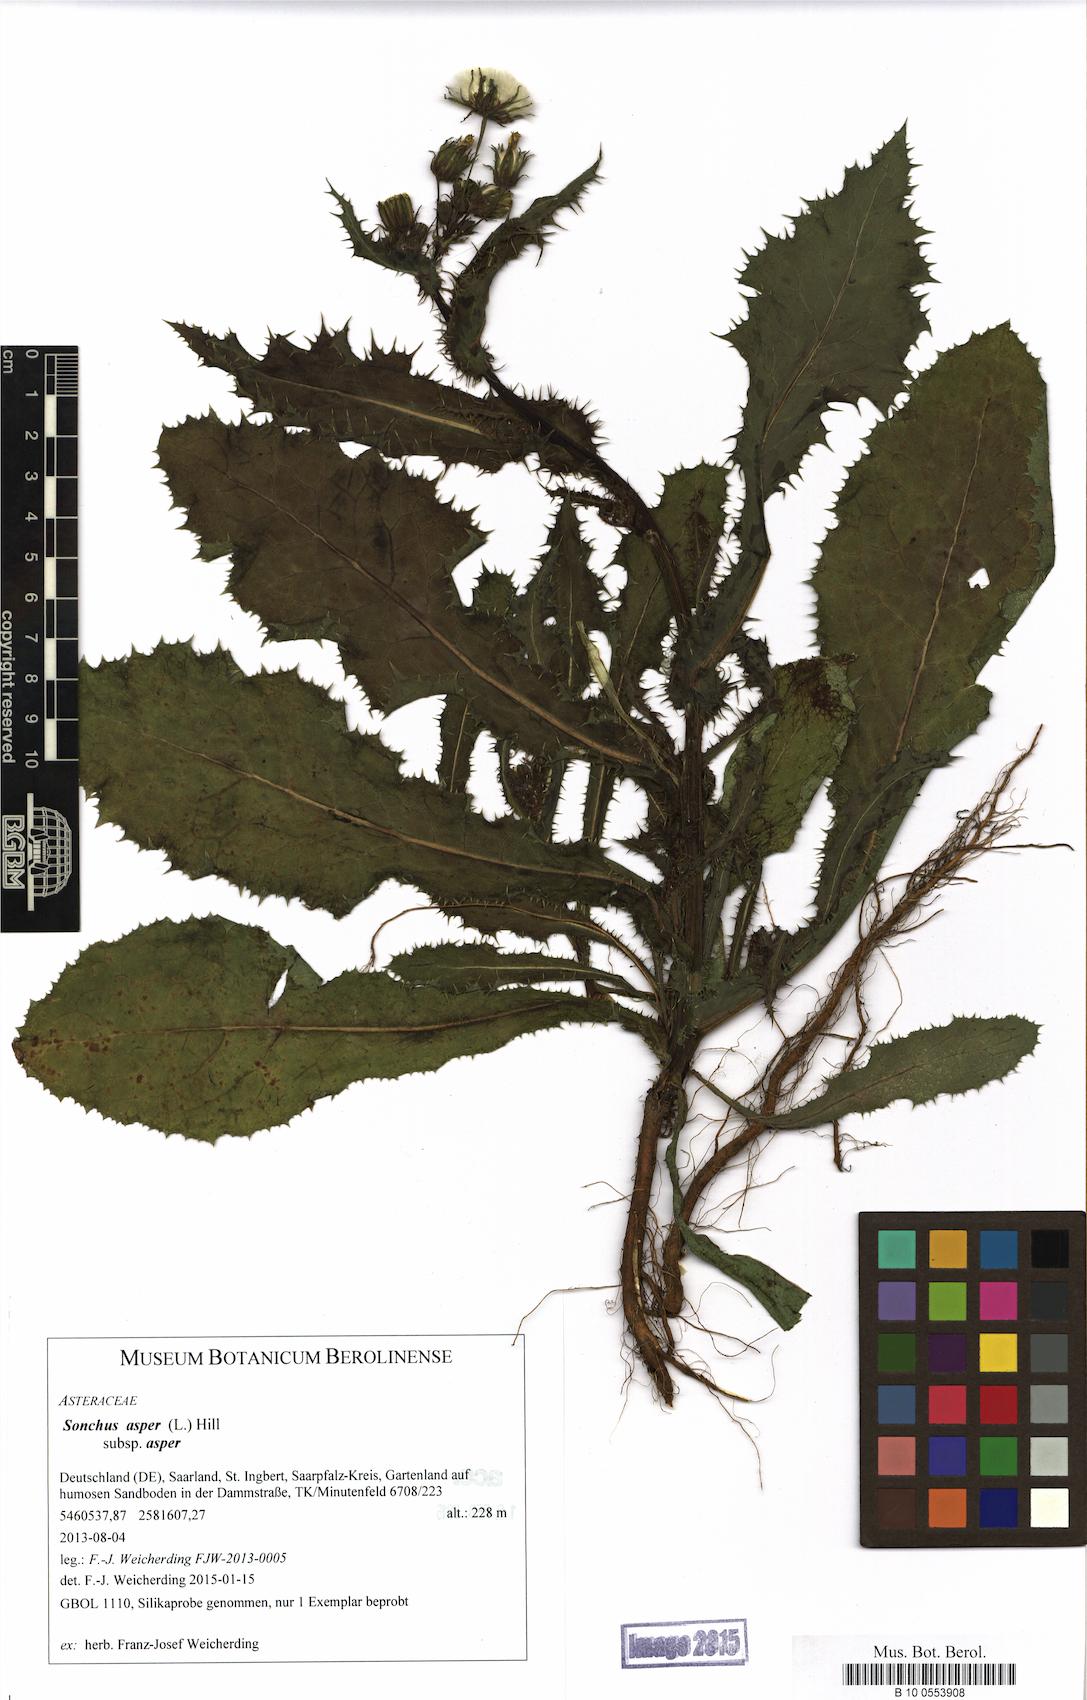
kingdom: Plantae
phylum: Tracheophyta
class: Magnoliopsida
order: Asterales
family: Asteraceae
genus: Sonchus
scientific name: Sonchus asper
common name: Prickly sow-thistle
